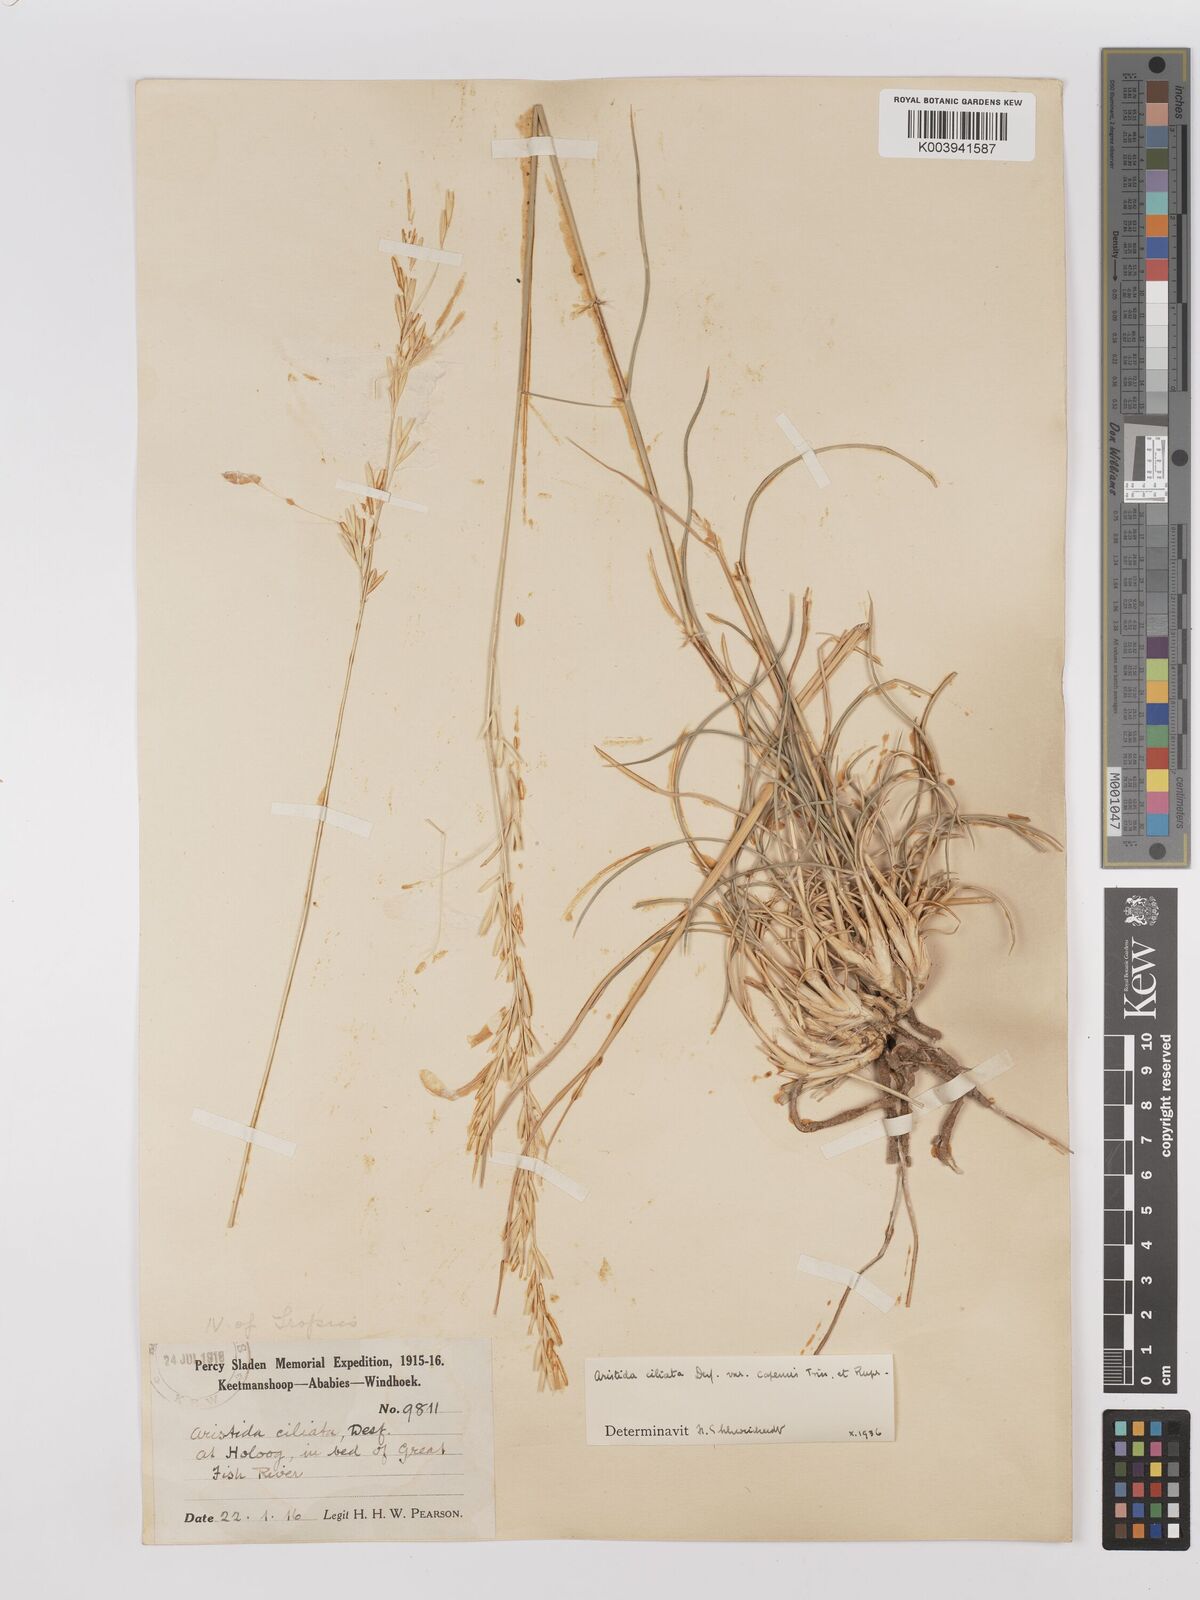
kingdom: Plantae
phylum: Tracheophyta
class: Liliopsida
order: Poales
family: Poaceae
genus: Stipagrostis
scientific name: Stipagrostis ciliata
